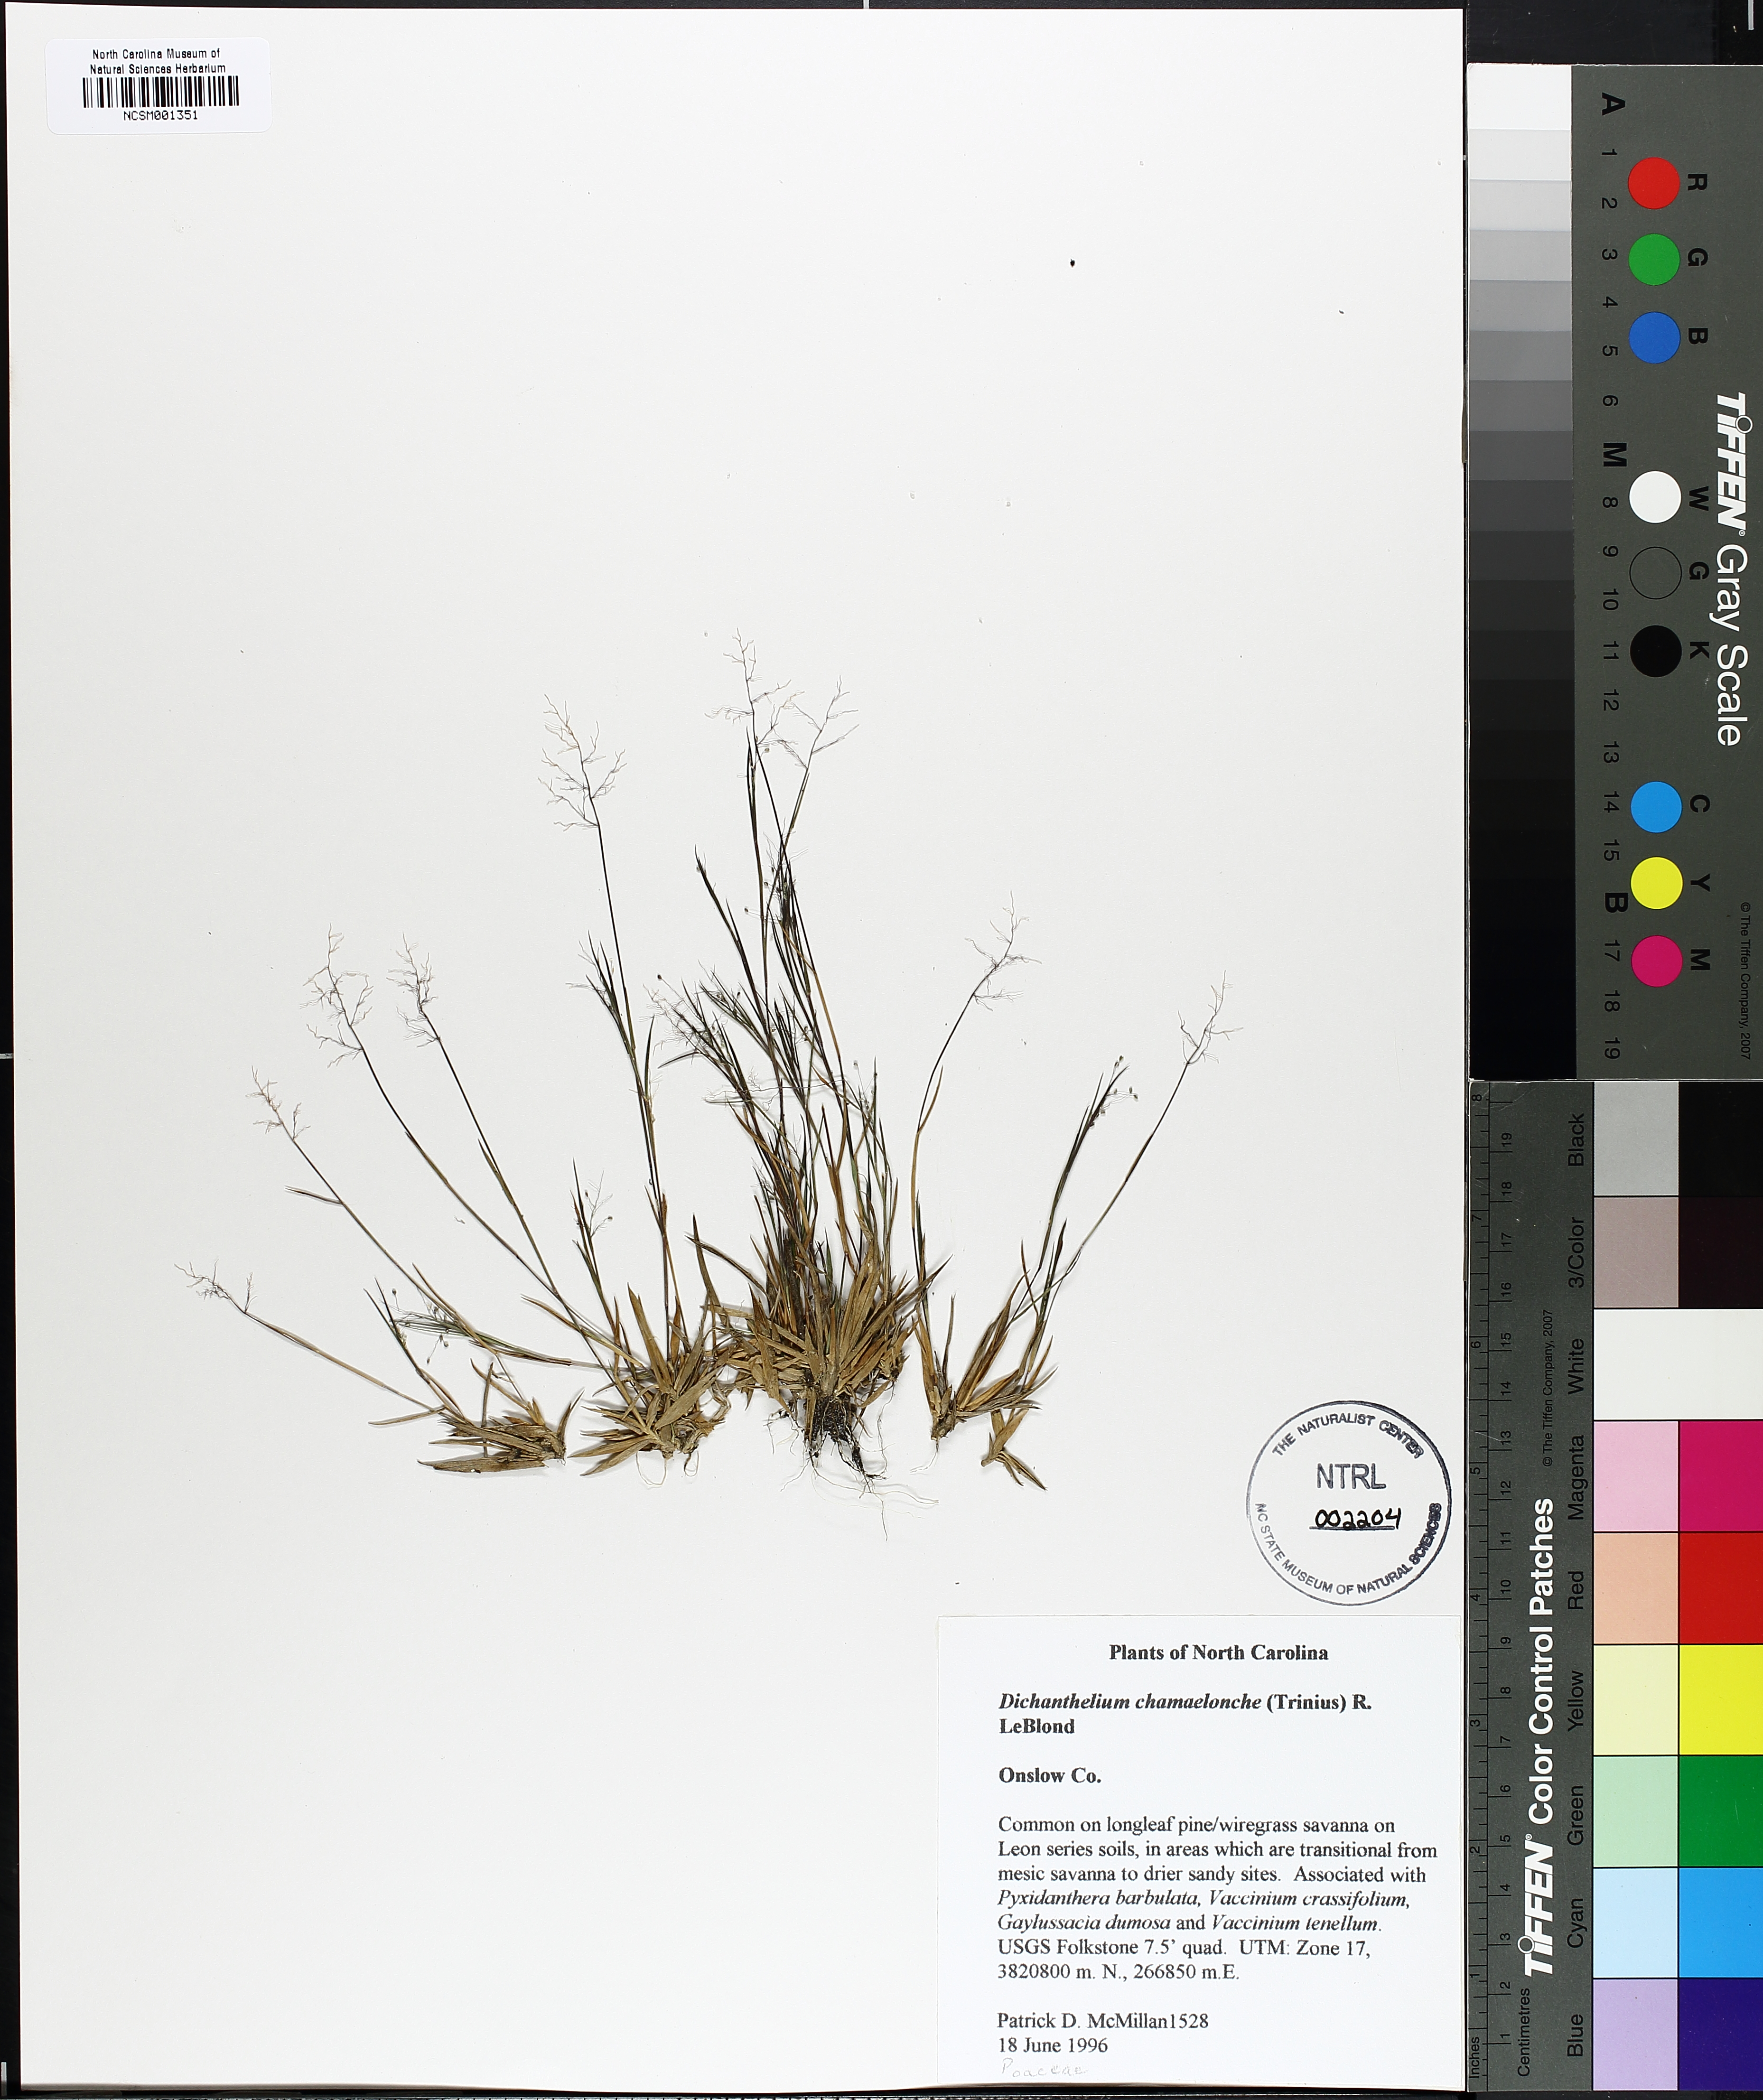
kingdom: Plantae
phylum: Tracheophyta
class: Liliopsida
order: Poales
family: Poaceae
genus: Dichanthelium
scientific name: Dichanthelium chamaelonche
